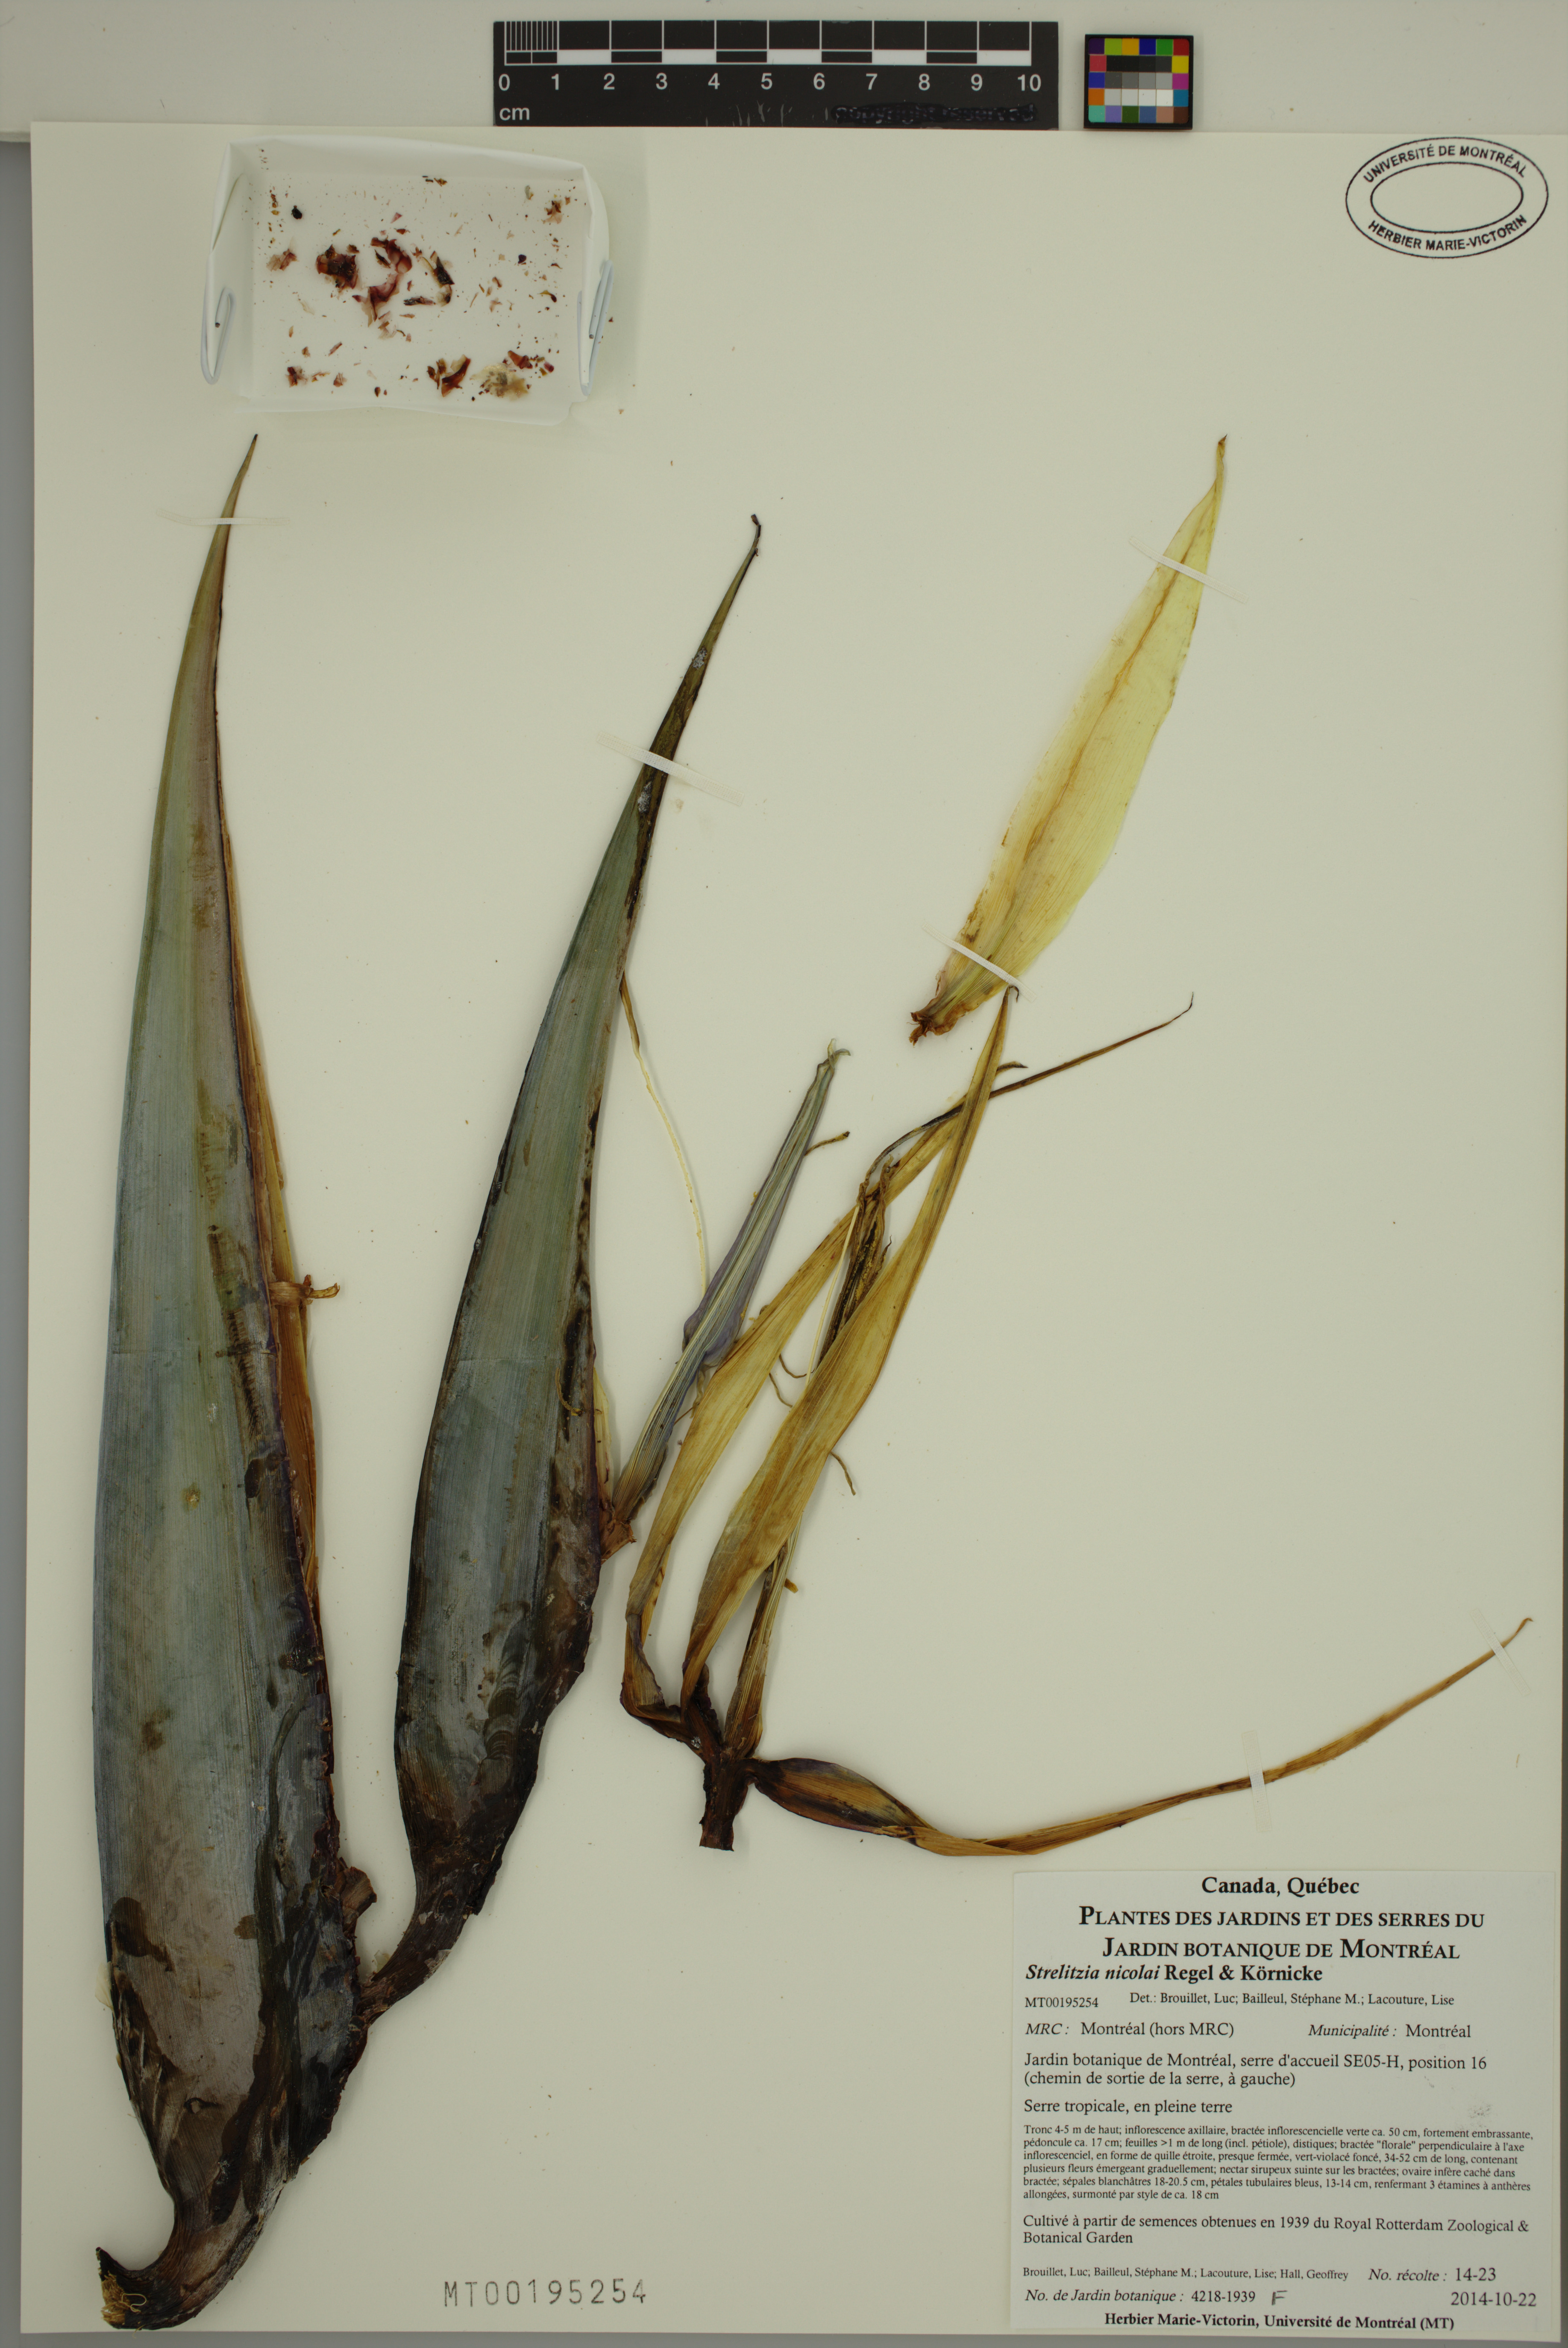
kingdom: Plantae
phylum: Tracheophyta
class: Liliopsida
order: Zingiberales
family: Strelitziaceae
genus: Strelitzia
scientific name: Strelitzia nicolai
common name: Bird-of-paradise tree
